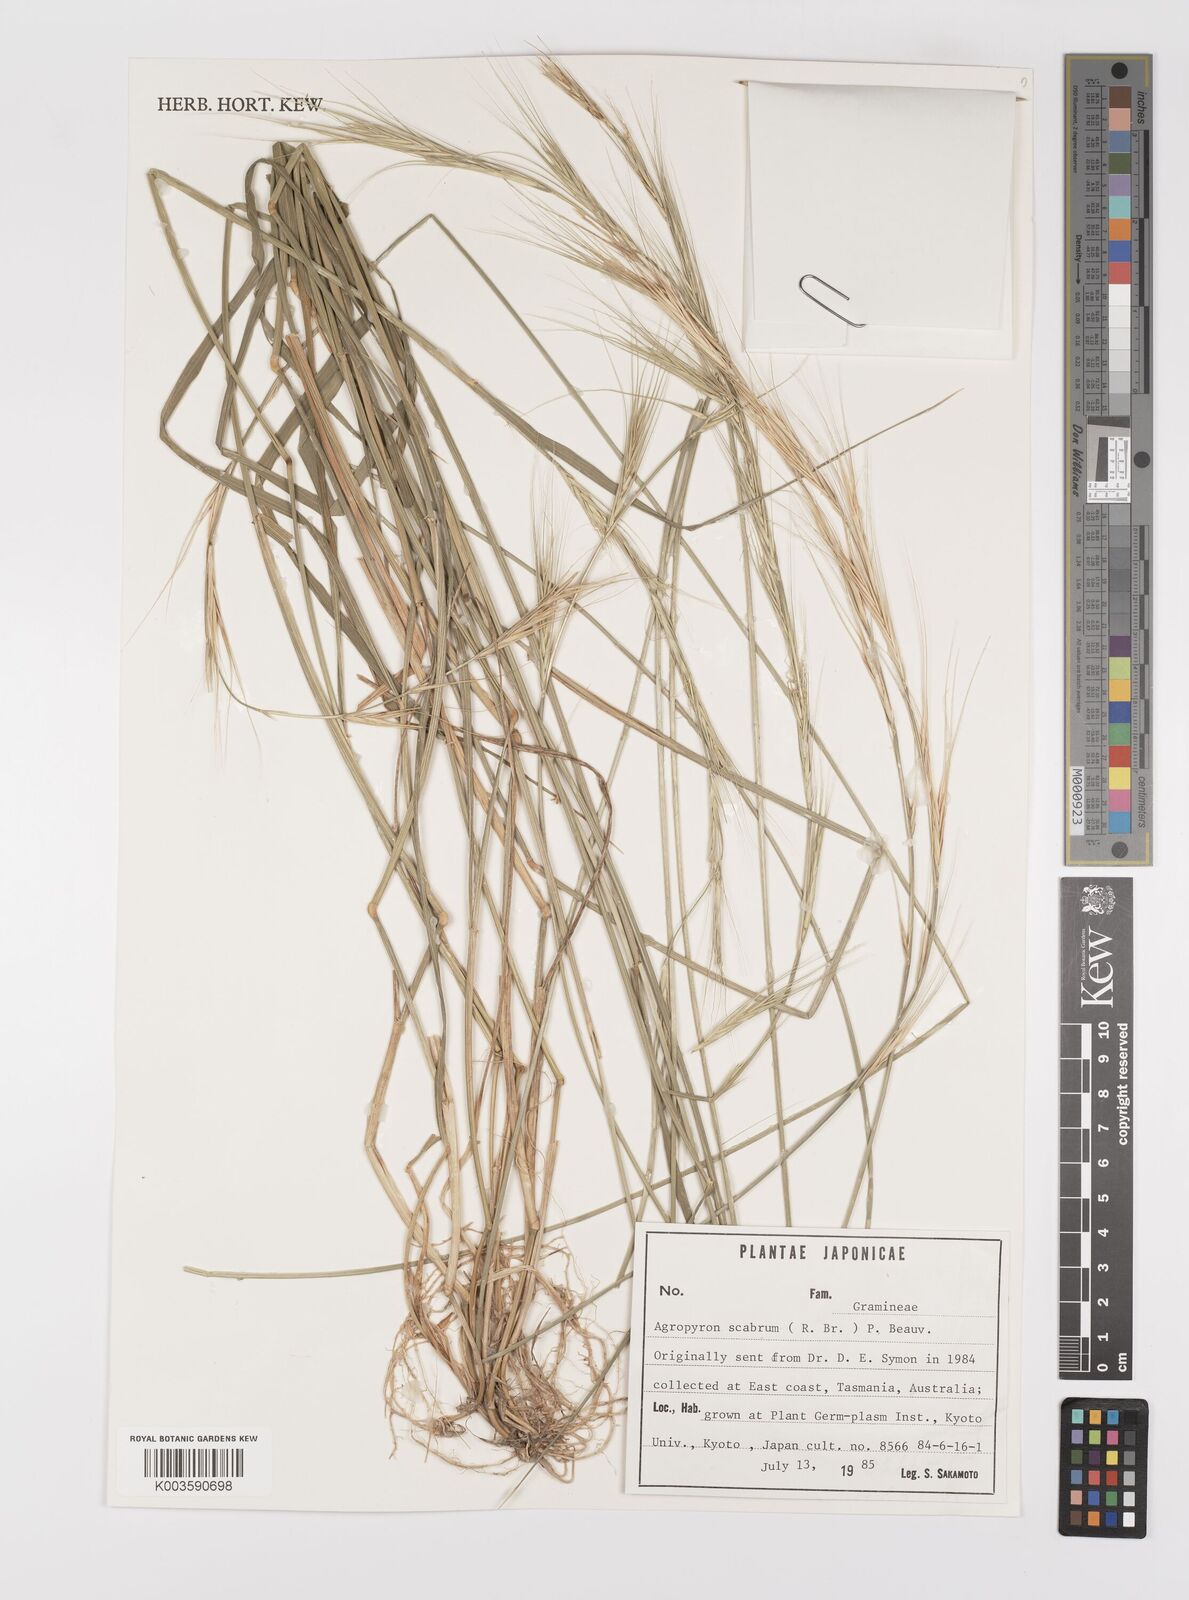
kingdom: Plantae
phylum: Tracheophyta
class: Liliopsida
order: Poales
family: Poaceae
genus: Elymus
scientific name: Elymus
